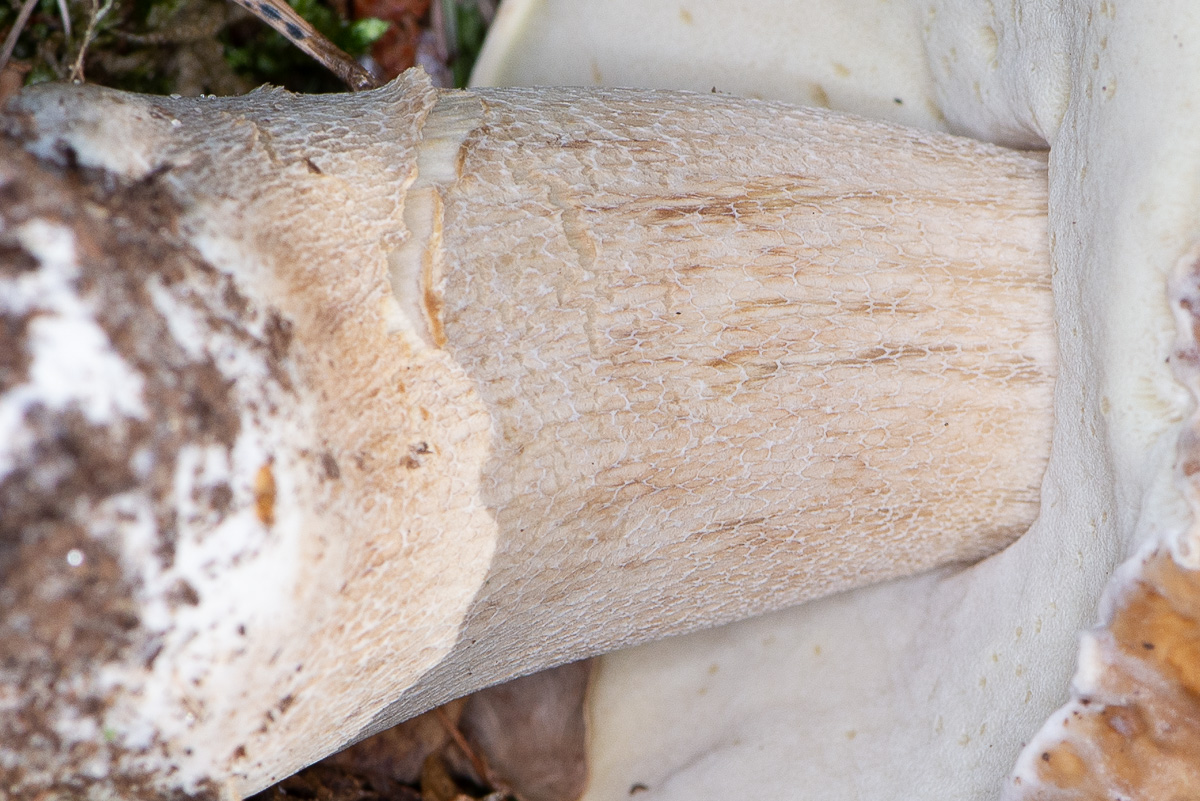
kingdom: Fungi
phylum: Basidiomycota
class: Agaricomycetes
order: Boletales
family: Boletaceae
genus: Boletus
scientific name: Boletus edulis
